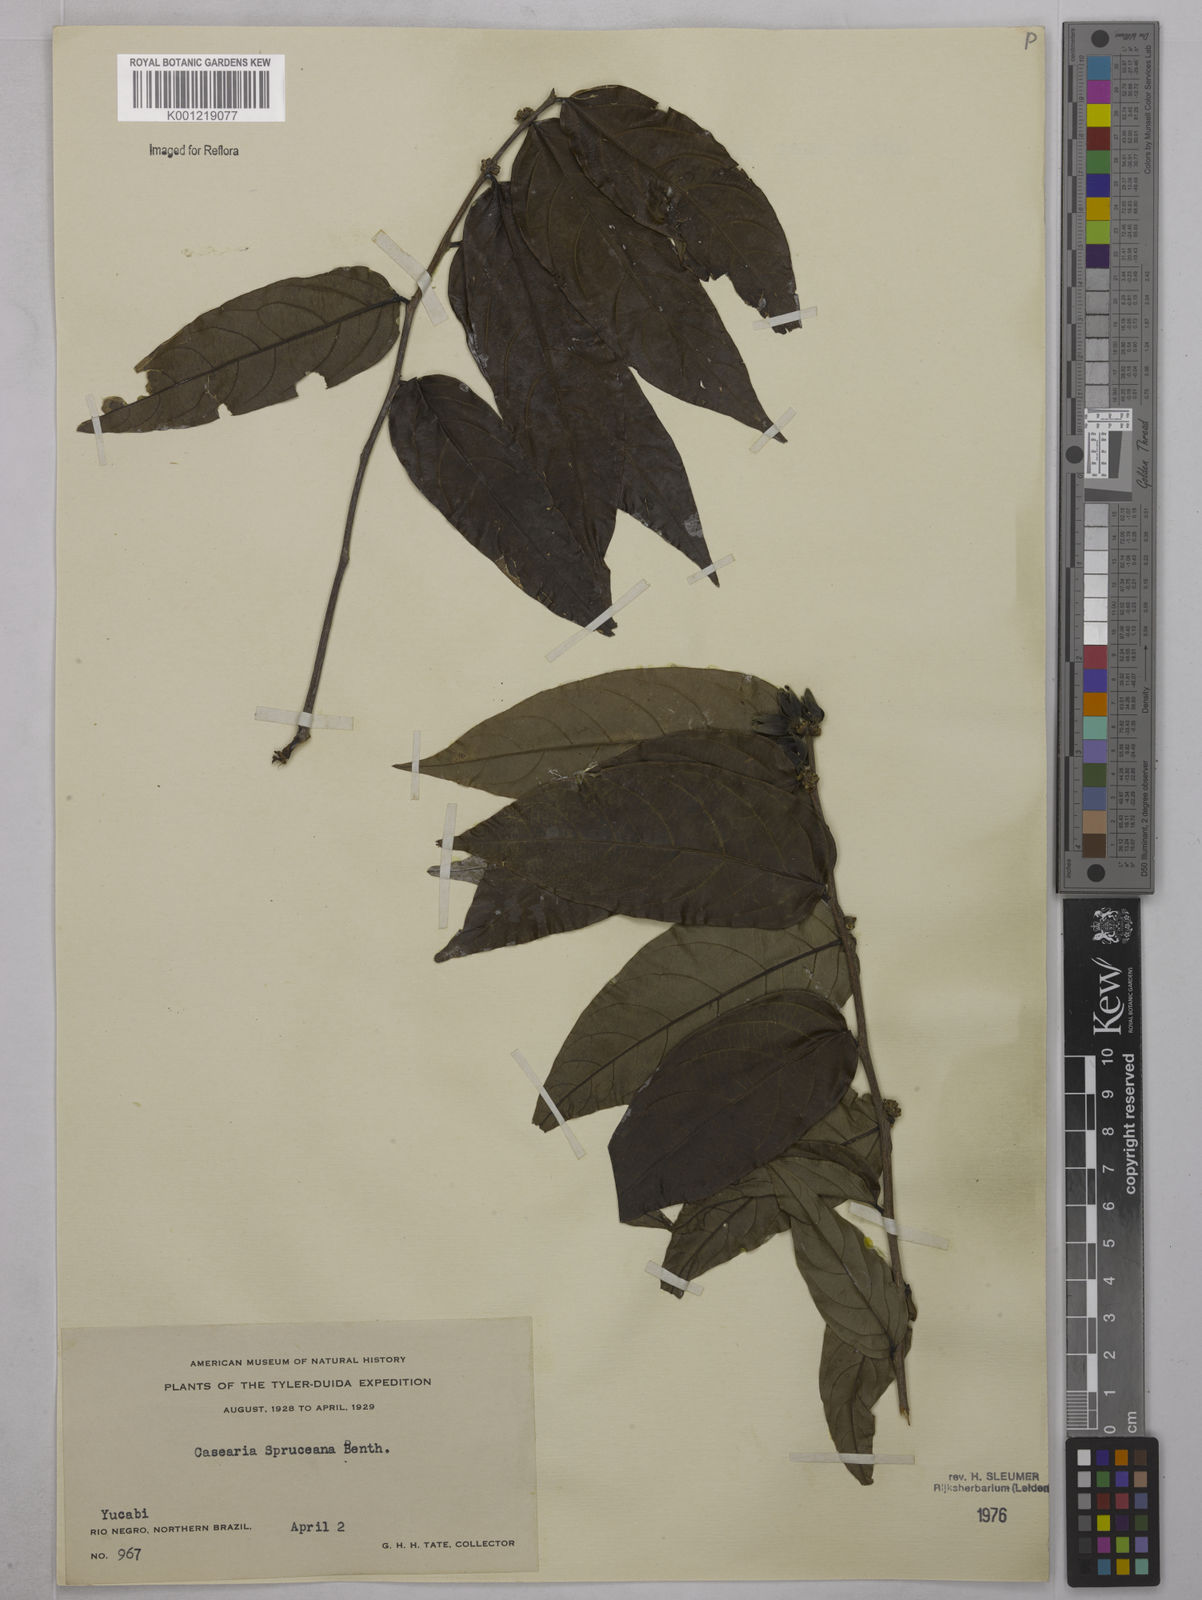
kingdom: Plantae
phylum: Tracheophyta
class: Magnoliopsida
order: Malpighiales
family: Salicaceae
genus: Piparea
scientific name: Piparea spruceana
